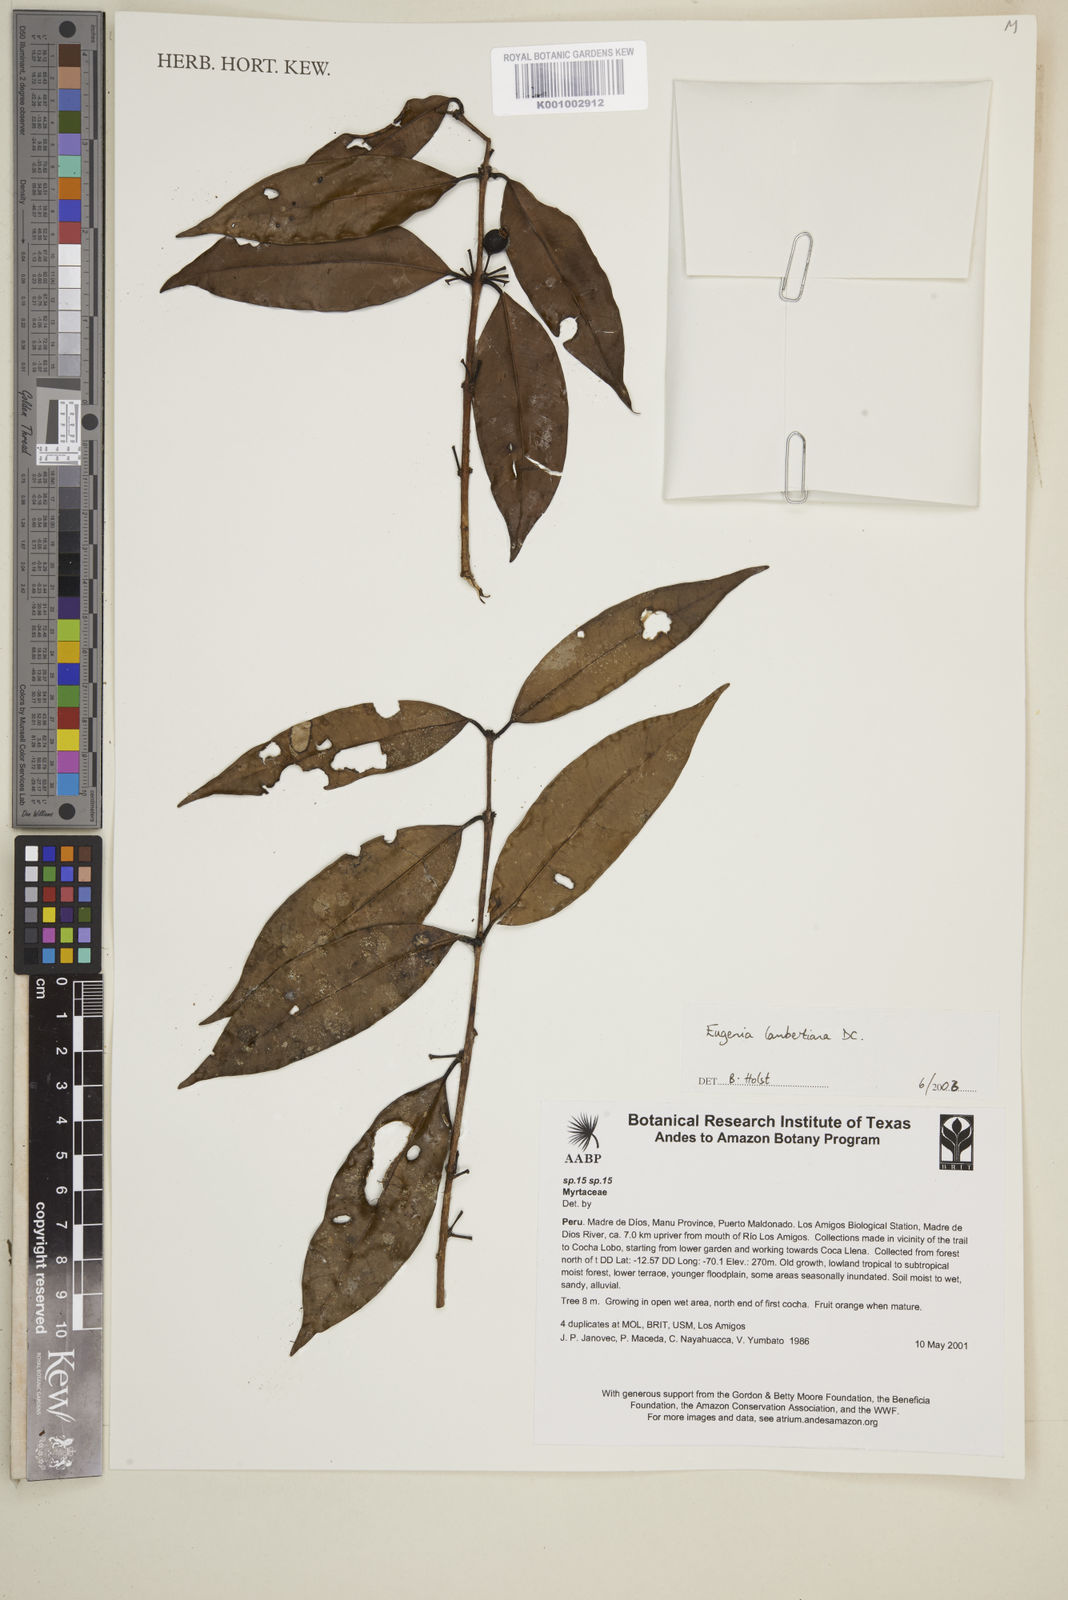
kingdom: Plantae
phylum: Tracheophyta
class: Magnoliopsida
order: Myrtales
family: Myrtaceae
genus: Eugenia
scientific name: Eugenia lambertiana
